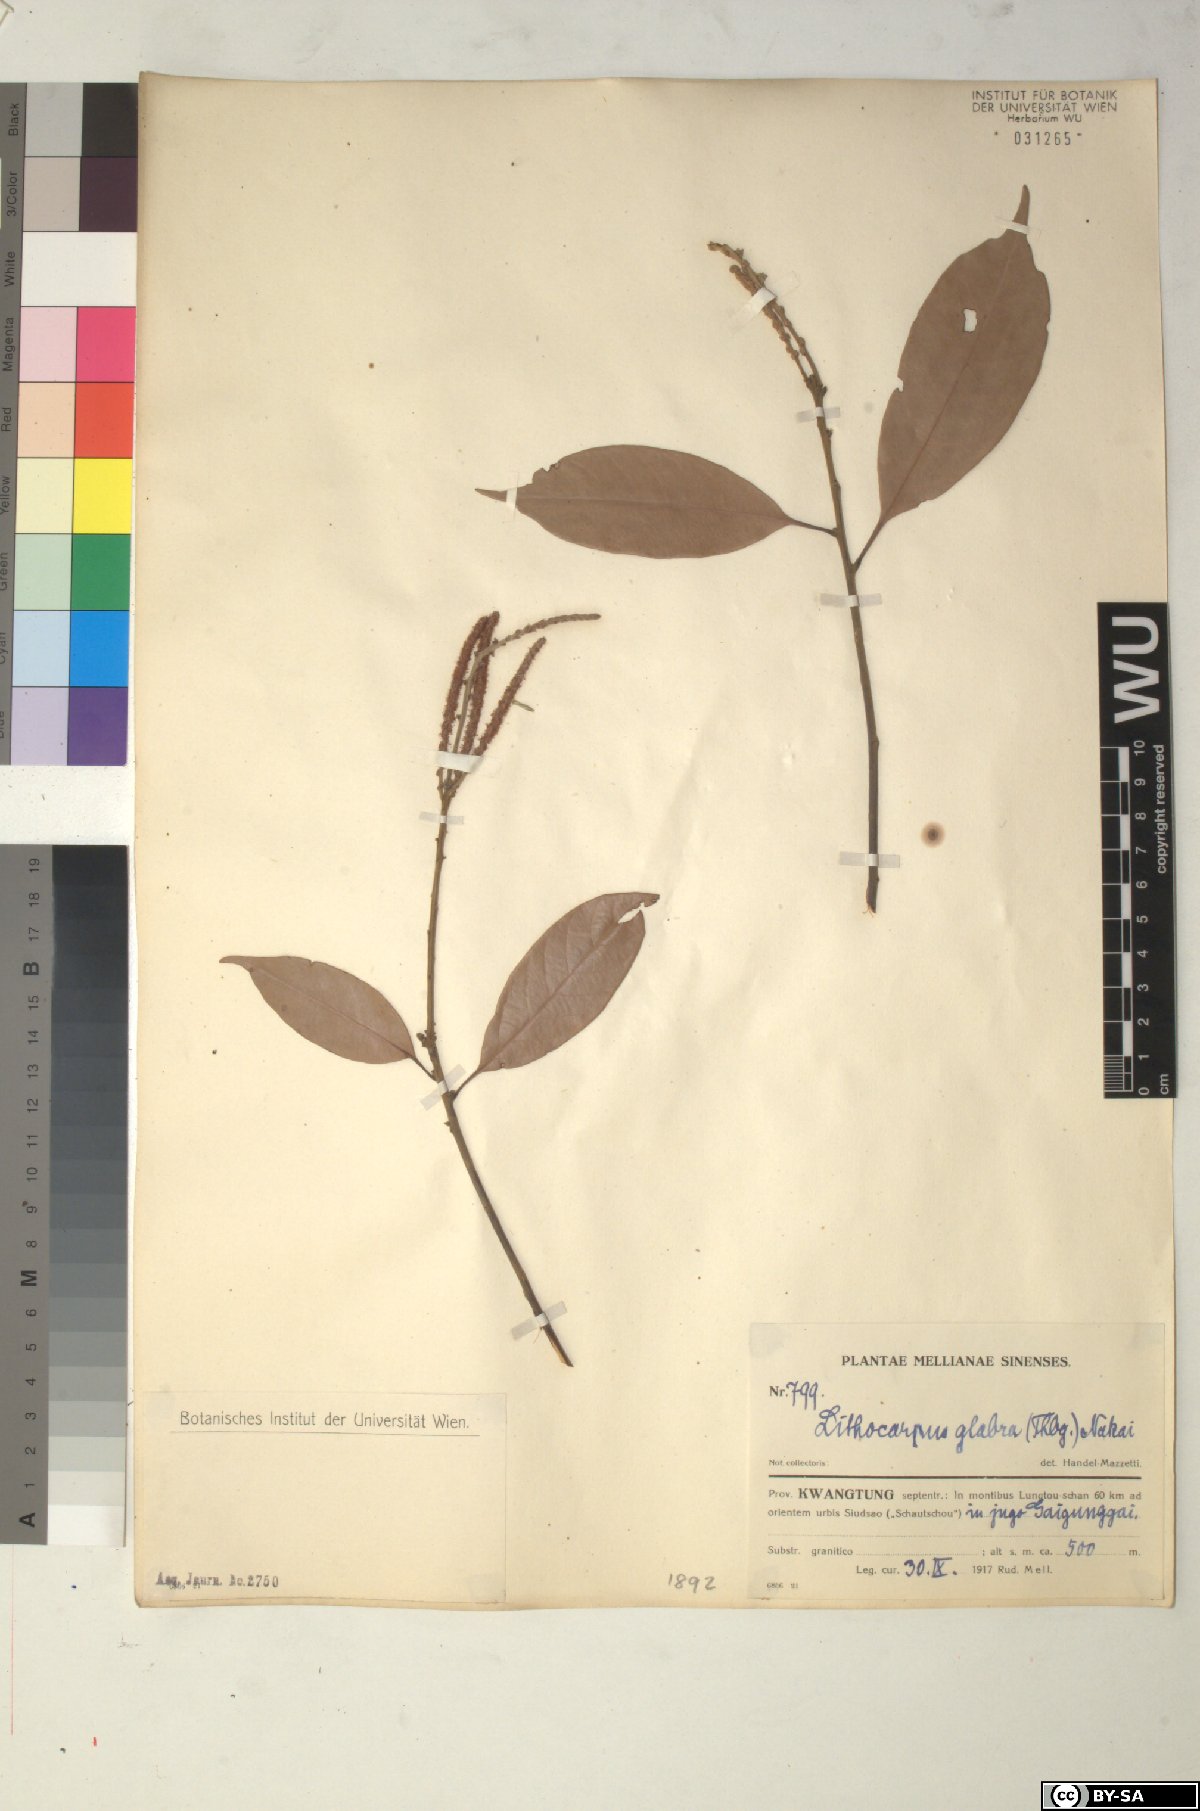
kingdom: Plantae
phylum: Tracheophyta
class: Magnoliopsida
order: Fagales
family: Fagaceae
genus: Lithocarpus
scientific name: Lithocarpus glaber
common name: Japanese-oak
